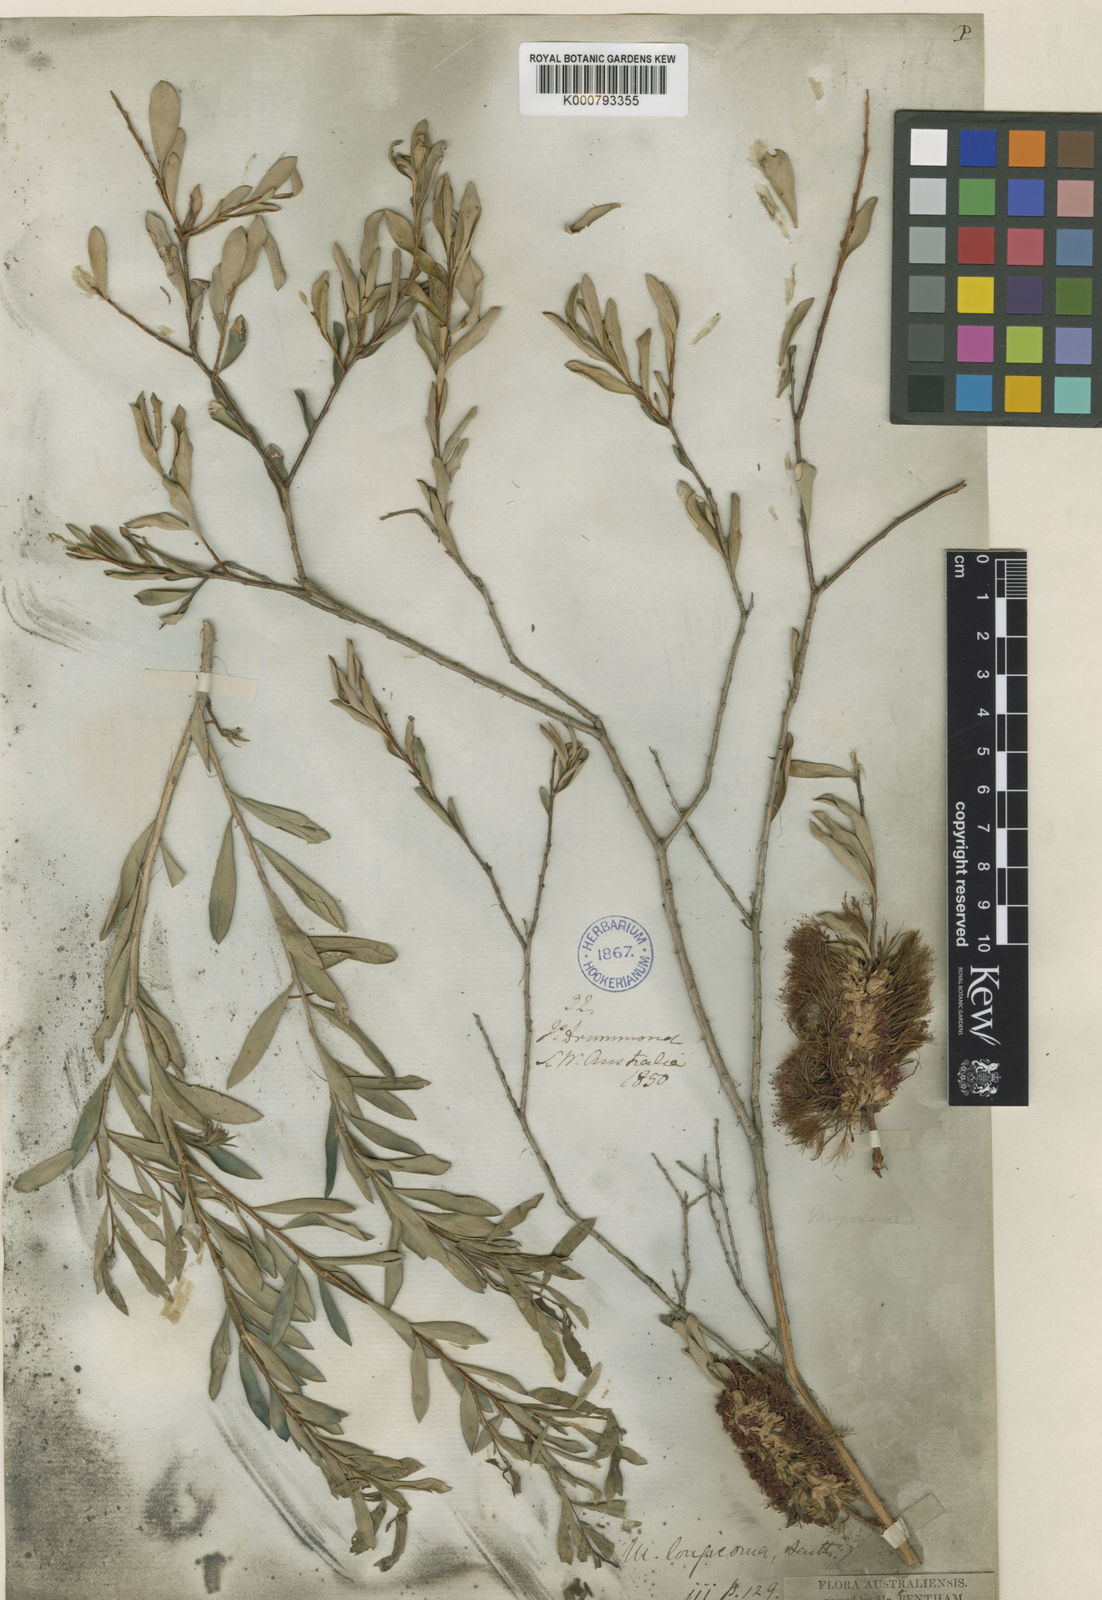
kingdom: Plantae
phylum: Tracheophyta
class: Magnoliopsida
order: Myrtales
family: Myrtaceae
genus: Melaleuca
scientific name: Melaleuca macronychia
